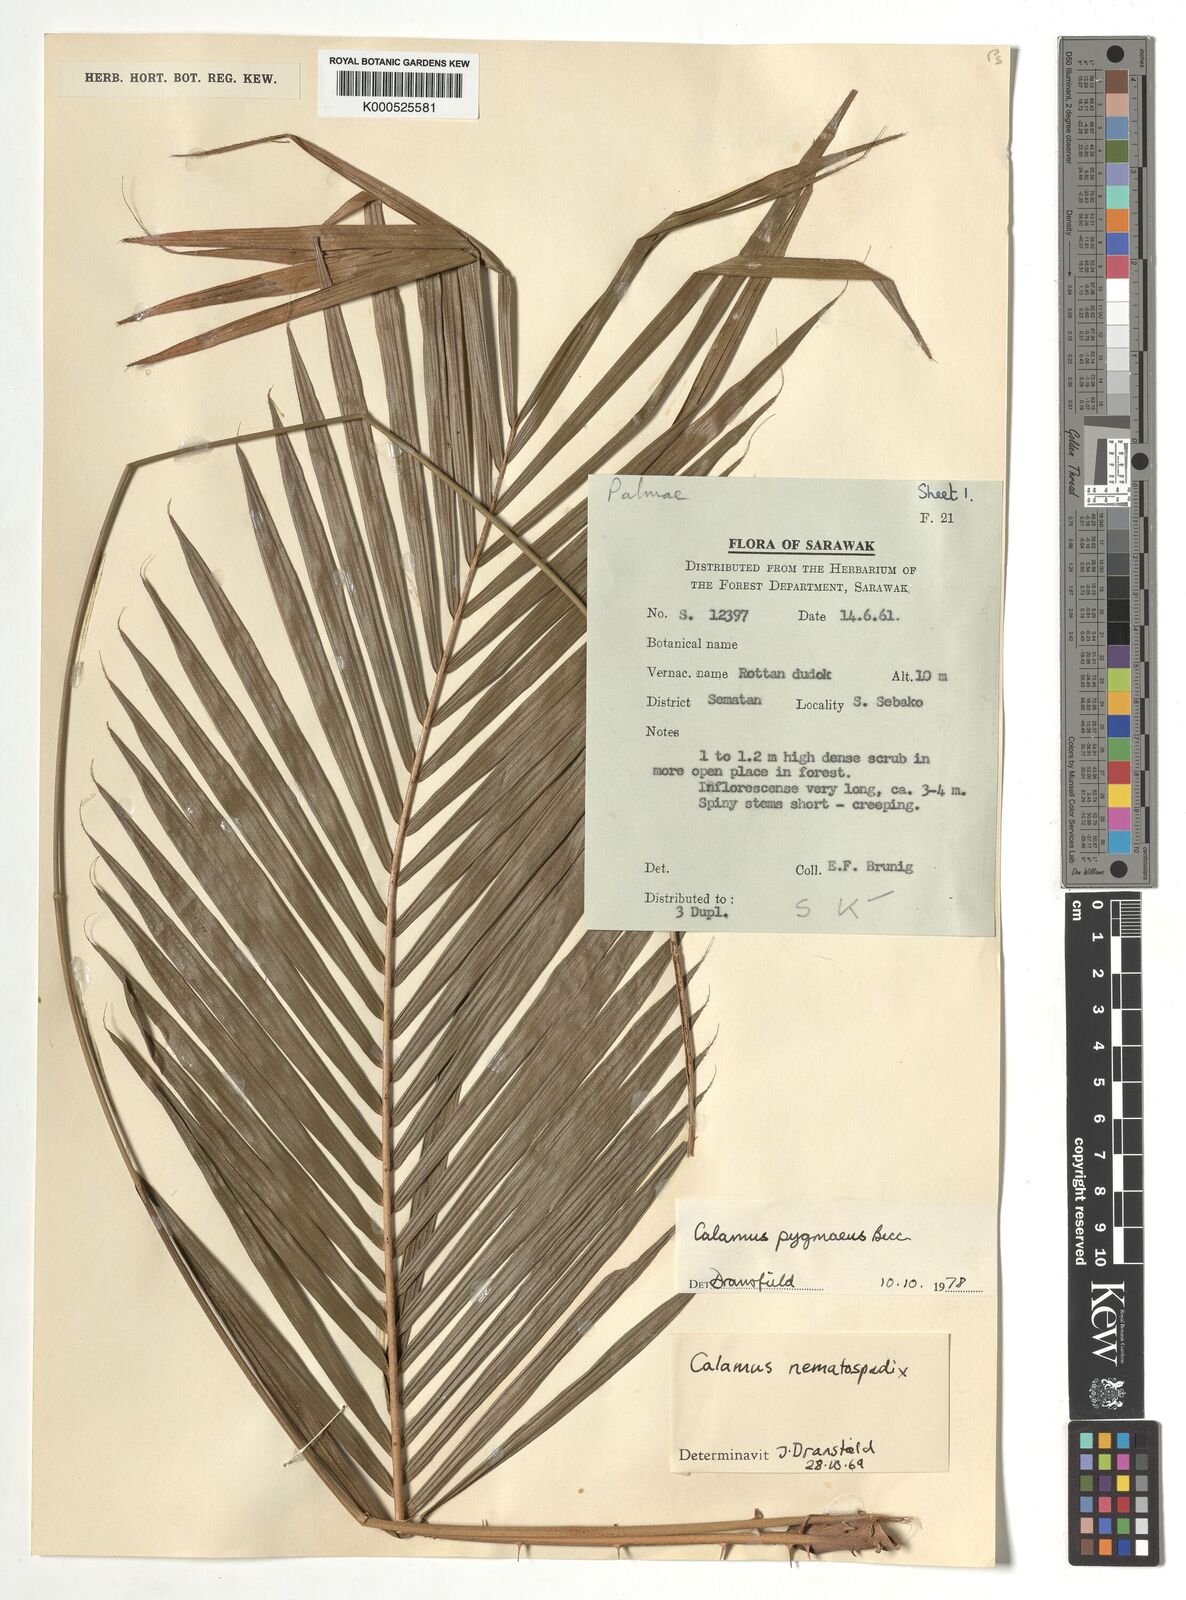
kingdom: Plantae
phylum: Tracheophyta
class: Liliopsida
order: Arecales
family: Arecaceae
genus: Calamus
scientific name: Calamus pygmaeus
